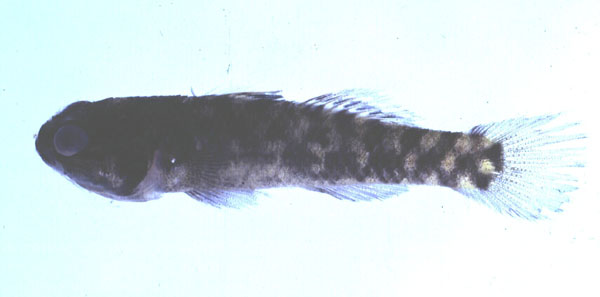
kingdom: Animalia
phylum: Chordata
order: Perciformes
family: Gobiidae
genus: Mugilogobius
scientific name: Mugilogobius zebra
